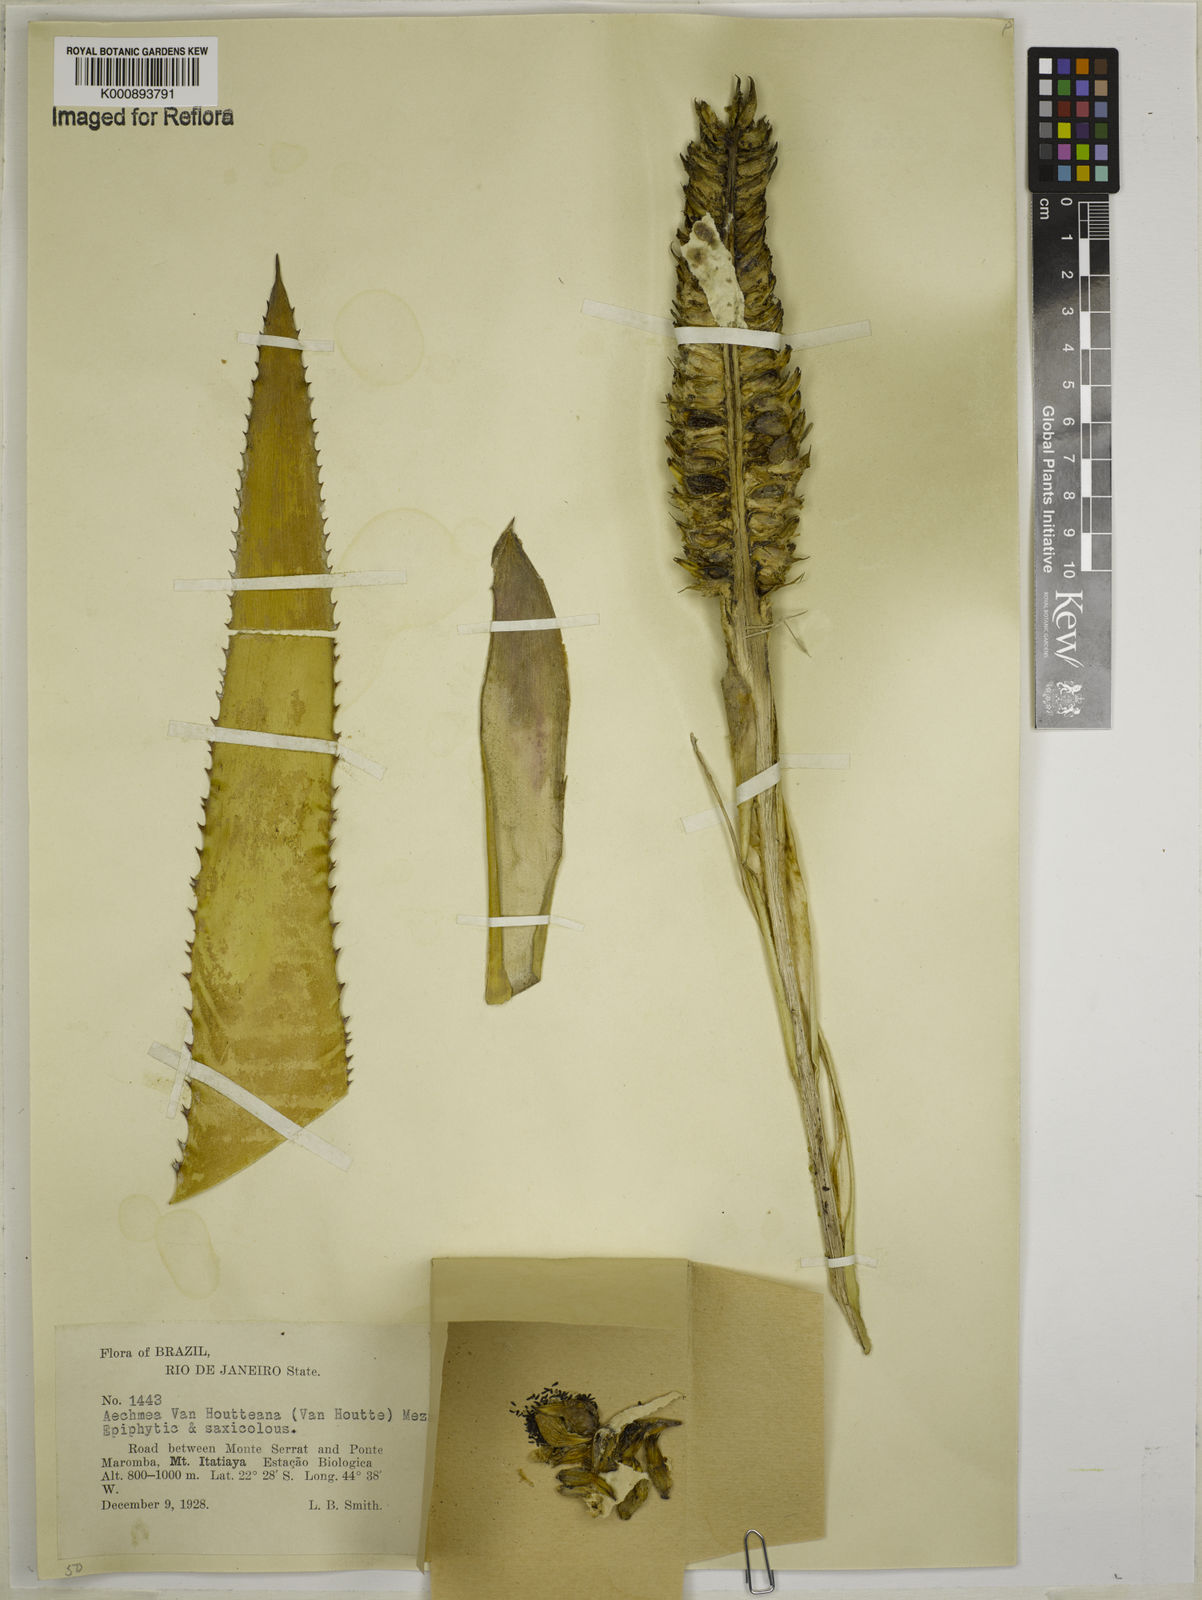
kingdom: Plantae
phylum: Tracheophyta
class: Liliopsida
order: Poales
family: Bromeliaceae
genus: Aechmea
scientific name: Aechmea vanhoutteana
